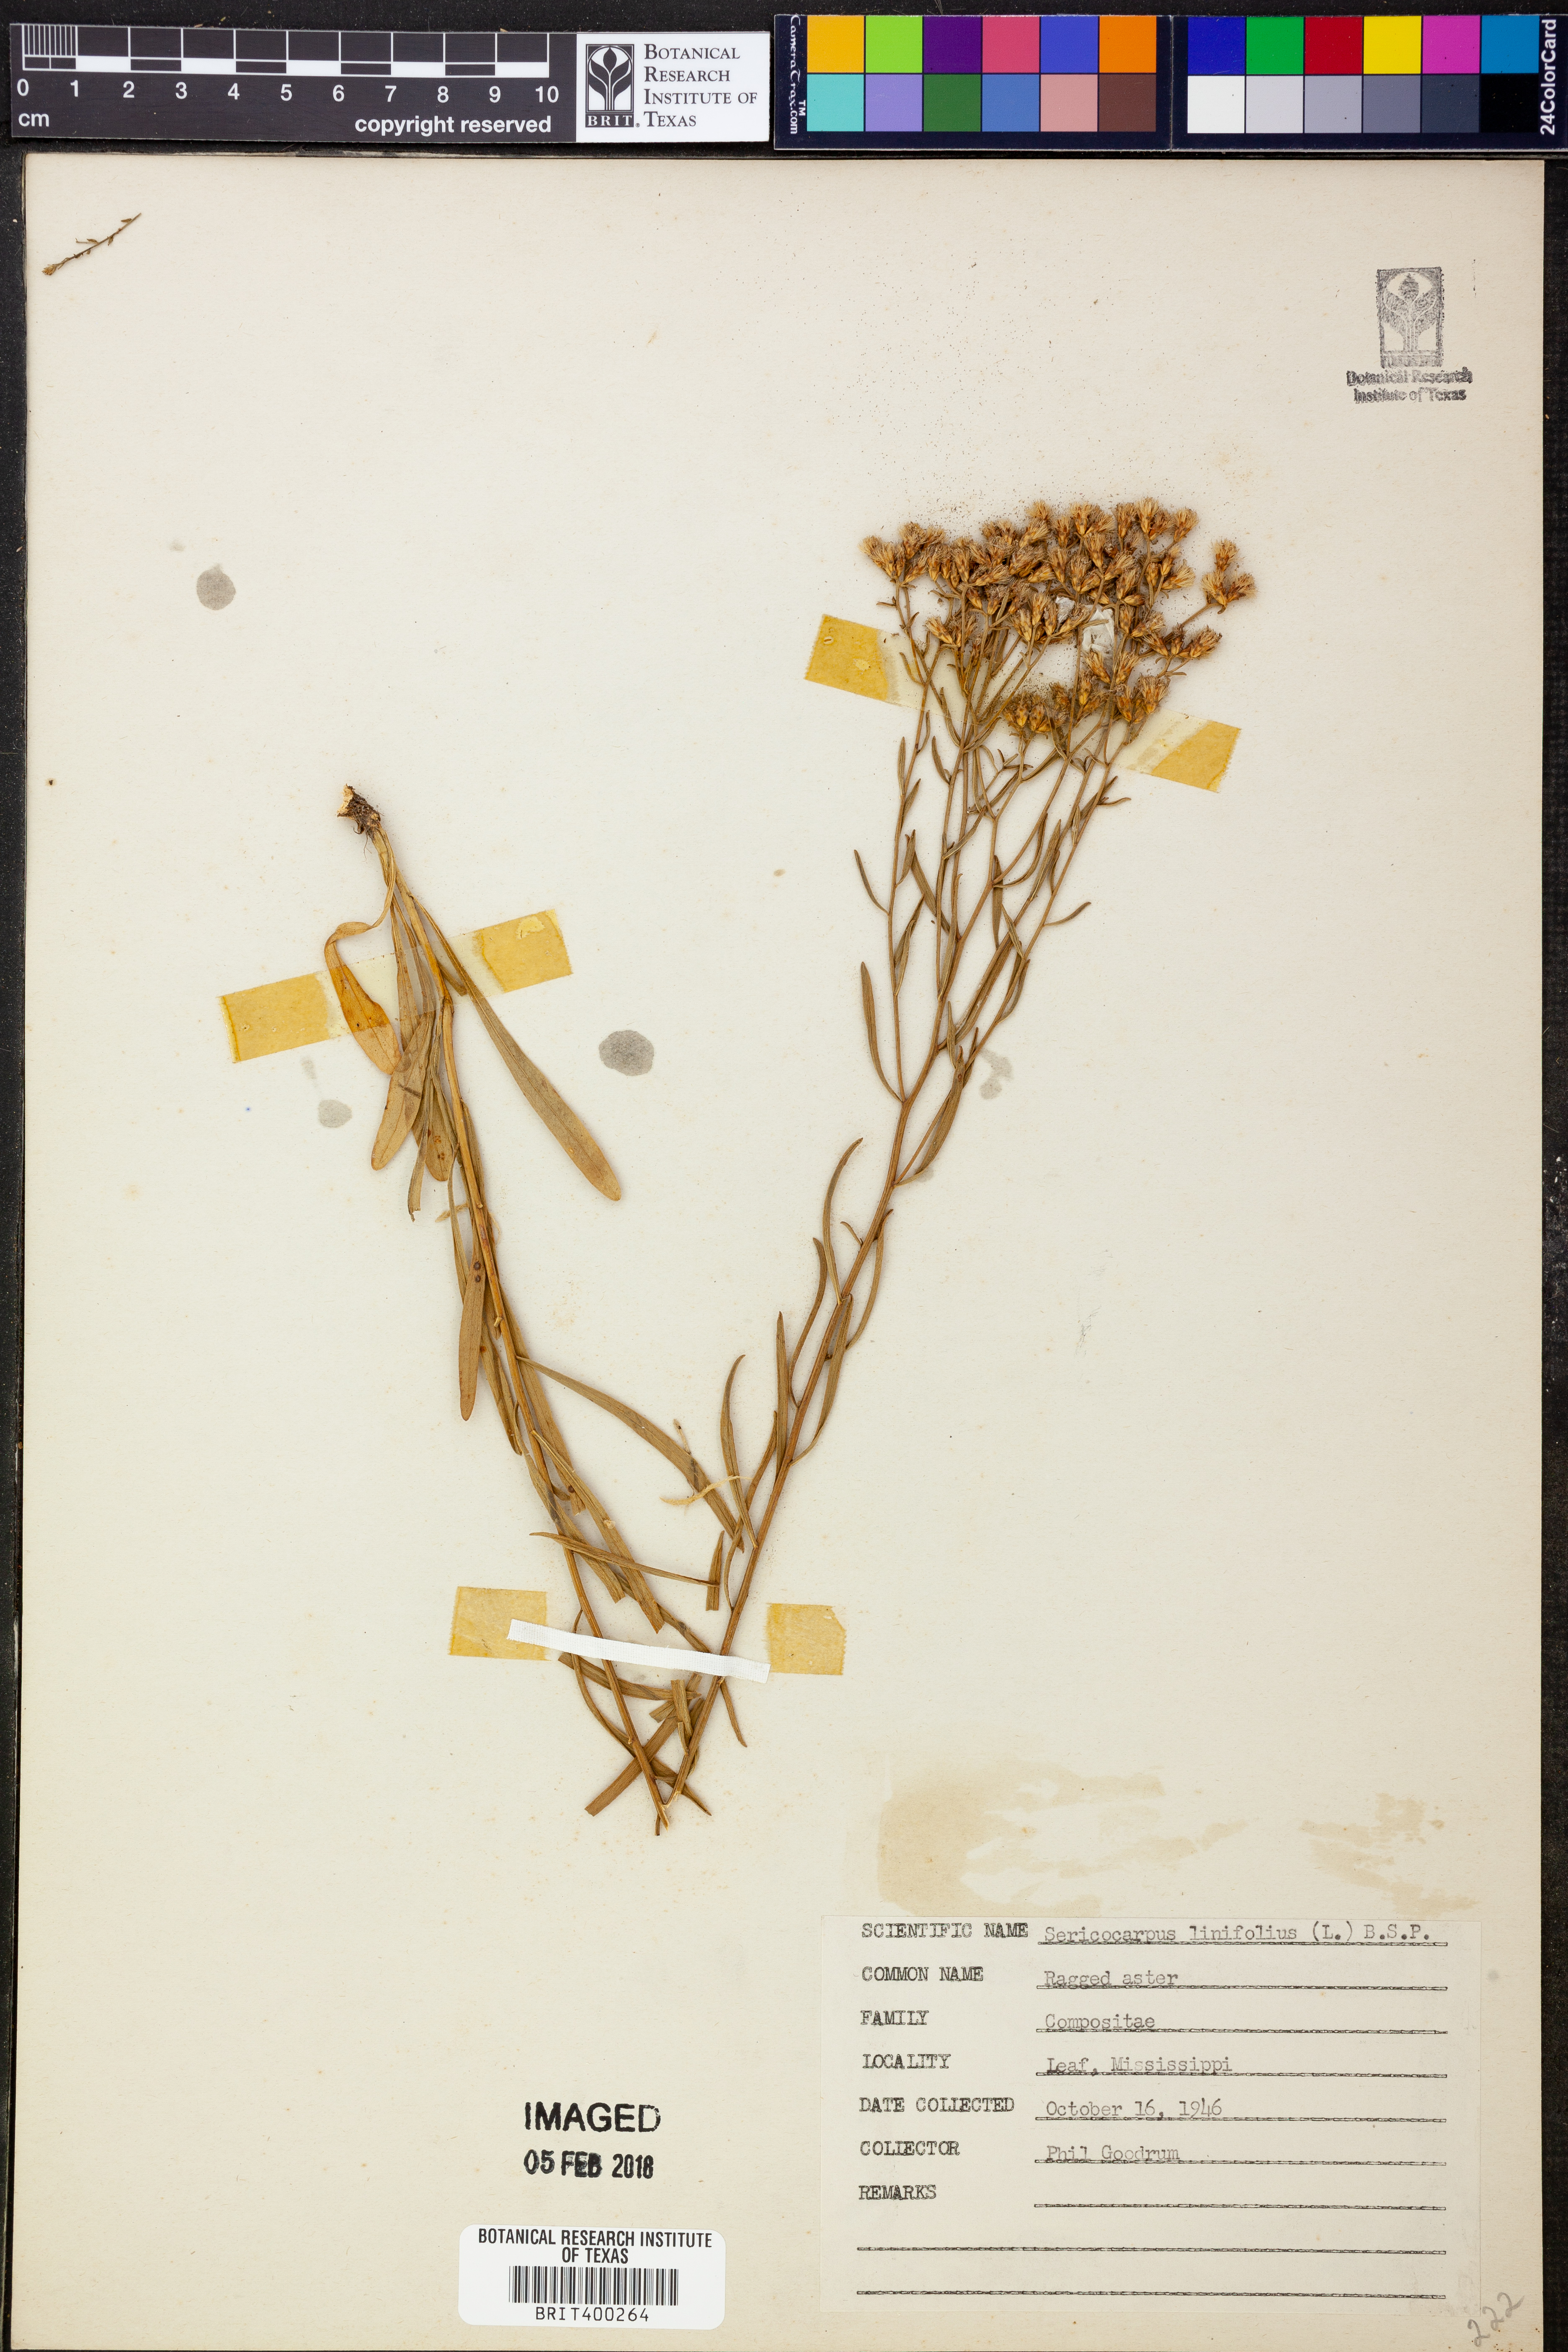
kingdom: Plantae
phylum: Tracheophyta
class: Magnoliopsida
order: Asterales
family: Asteraceae
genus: Sericocarpus
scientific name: Sericocarpus linifolius
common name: Narrow-leaf aster
